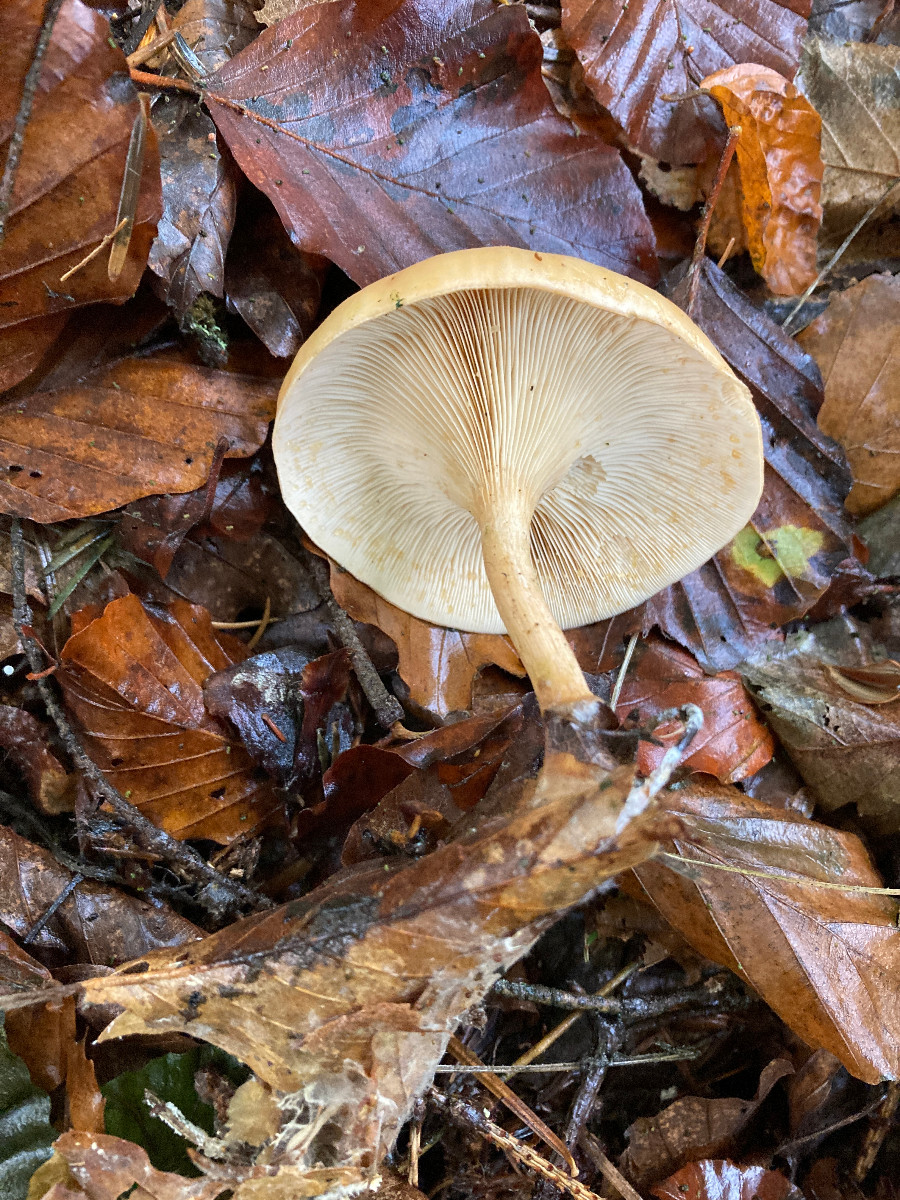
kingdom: Fungi
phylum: Basidiomycota
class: Agaricomycetes
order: Agaricales
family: Tricholomataceae
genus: Paralepista
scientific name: Paralepista flaccida
